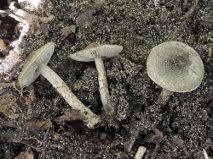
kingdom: Fungi
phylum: Basidiomycota
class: Agaricomycetes
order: Agaricales
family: Agaricaceae
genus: Lepiota
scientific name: Lepiota griseovirens
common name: grågrøn parasolhat
